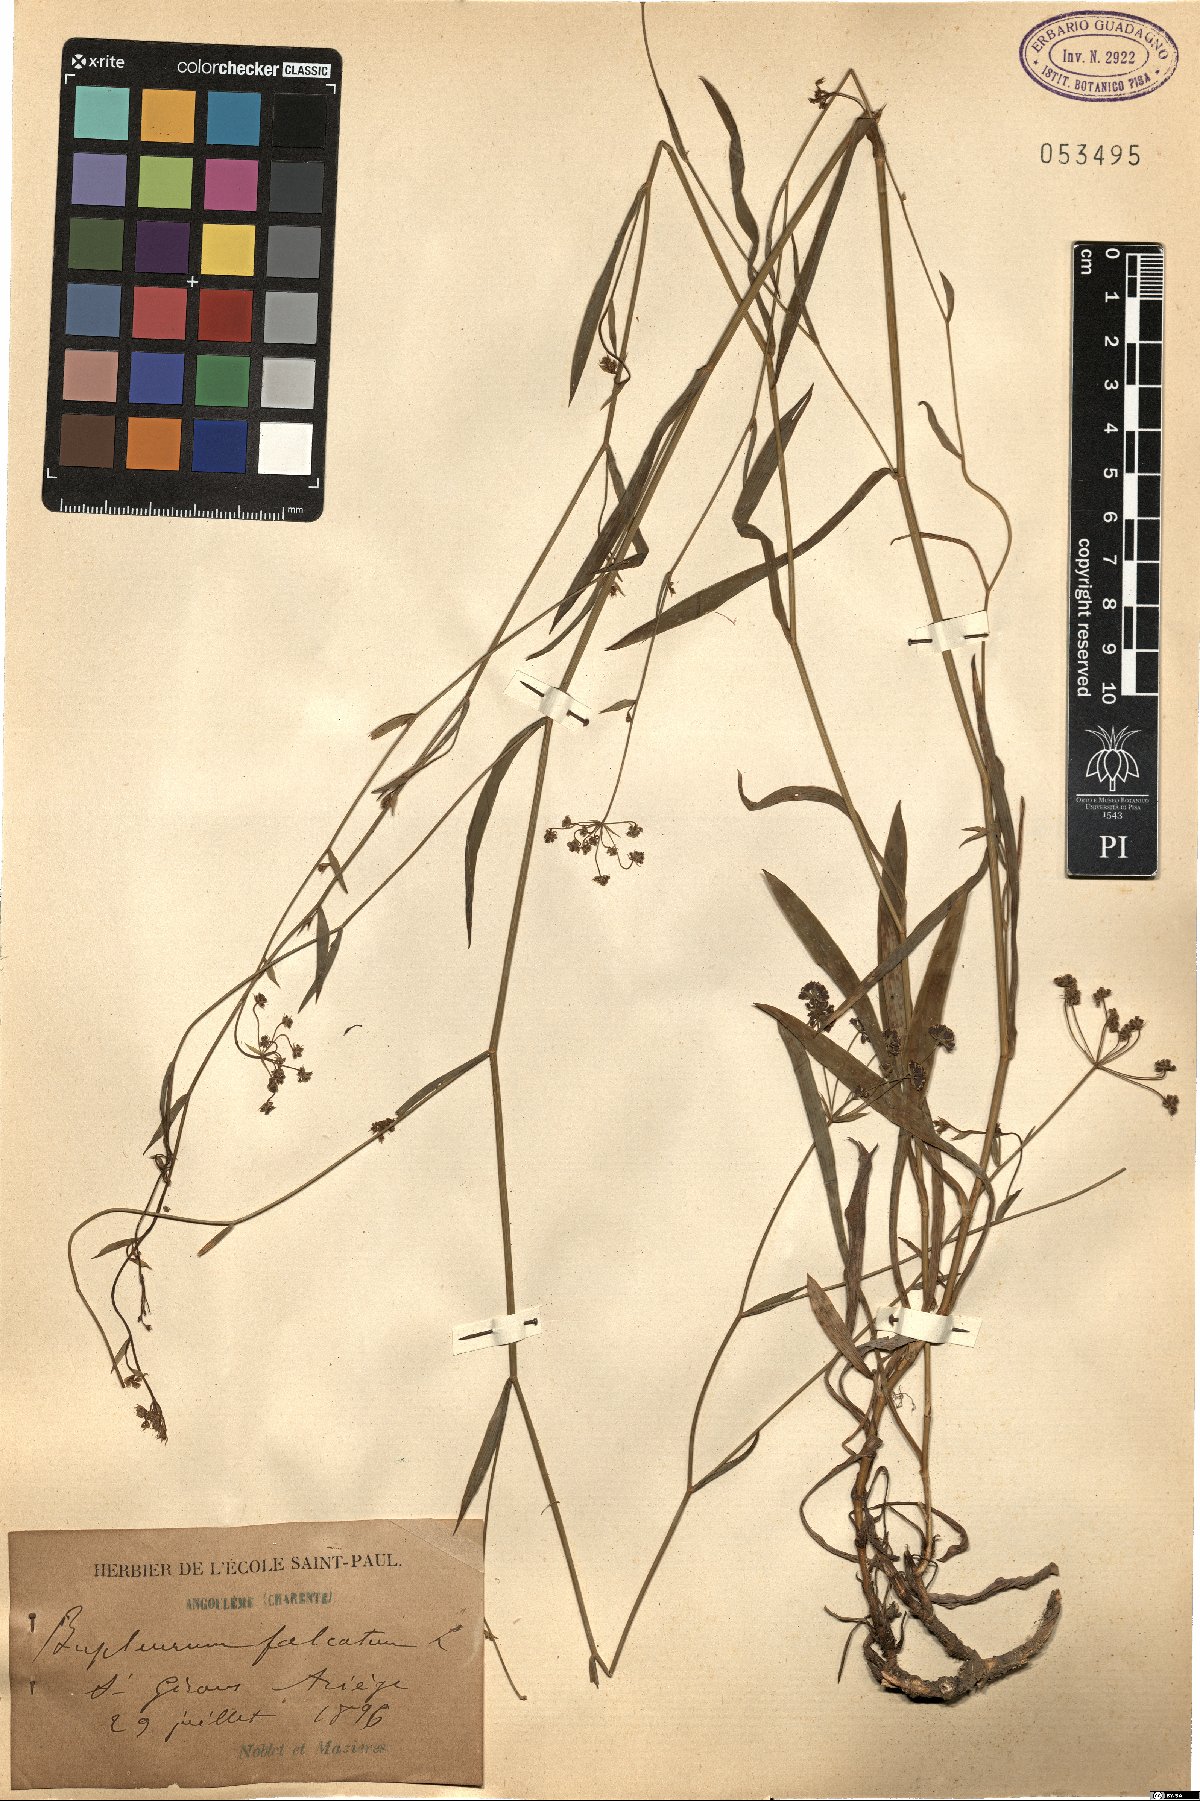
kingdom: Plantae
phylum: Tracheophyta
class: Magnoliopsida
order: Apiales
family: Apiaceae
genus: Bupleurum
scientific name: Bupleurum falcatum
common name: Sickle-leaved hare's-ear
